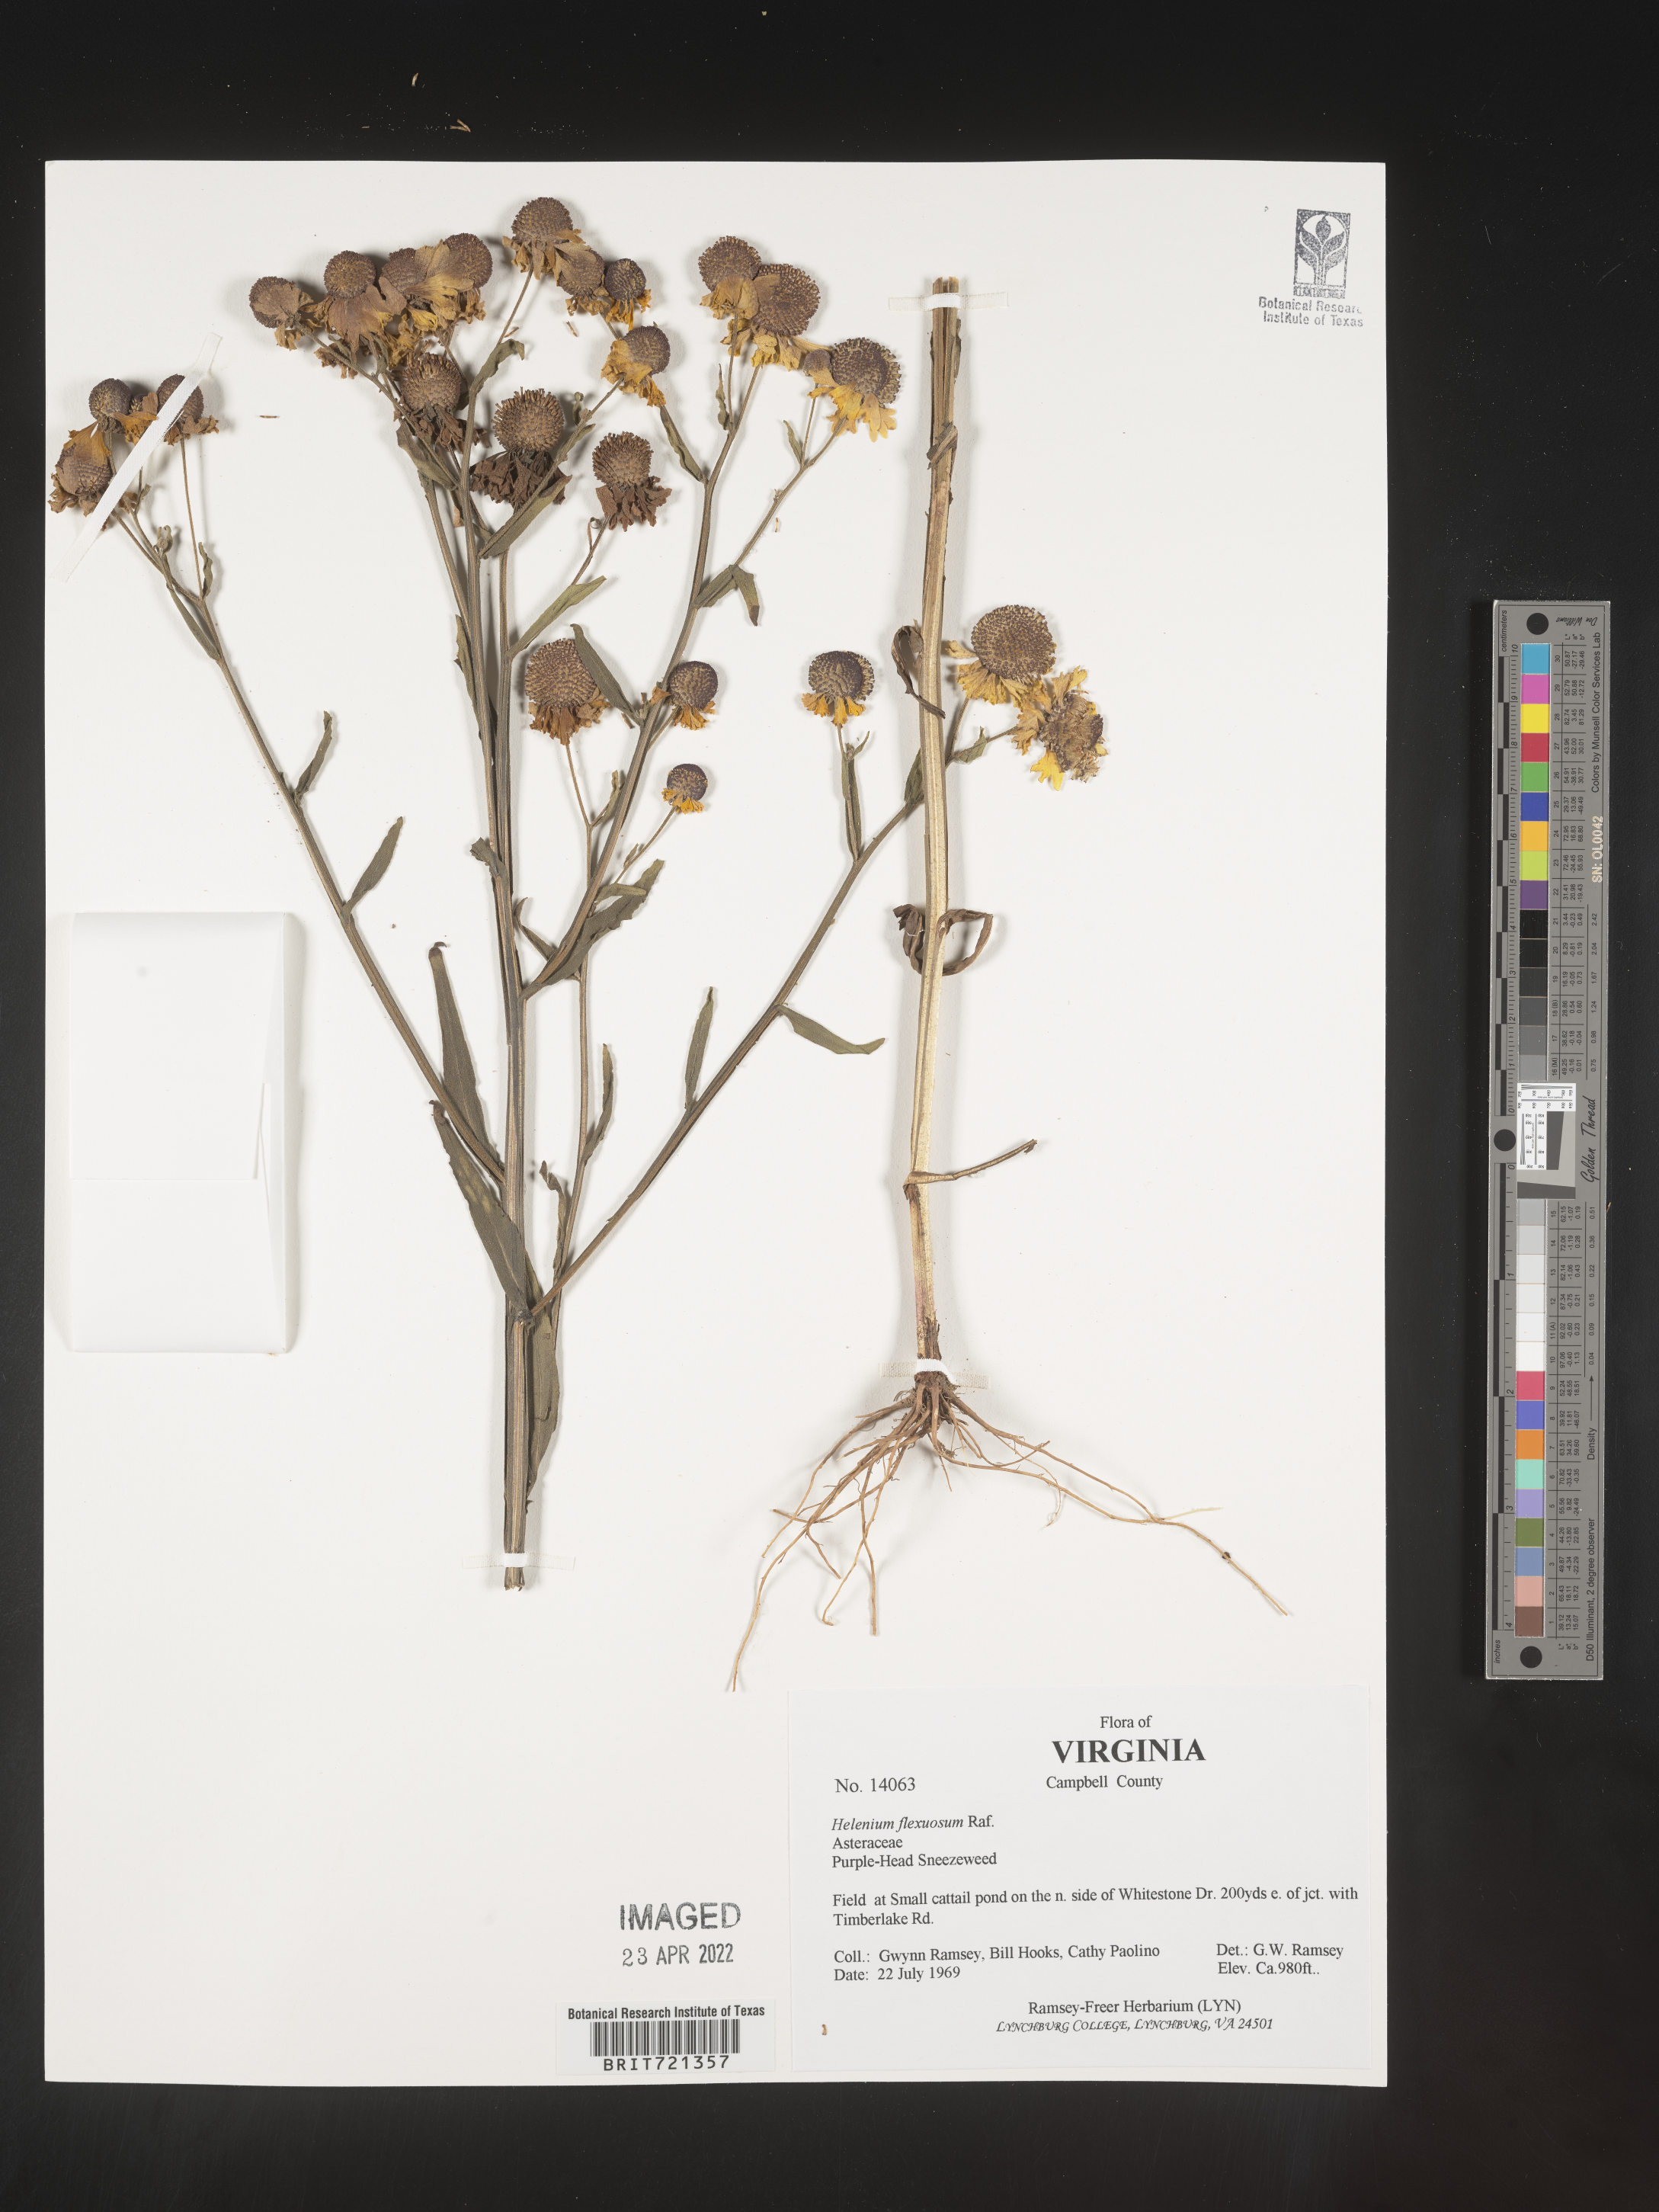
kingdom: Plantae
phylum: Tracheophyta
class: Magnoliopsida
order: Asterales
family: Asteraceae
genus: Helenium
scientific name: Helenium flexuosum
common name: Naked-flowered sneezeweed
